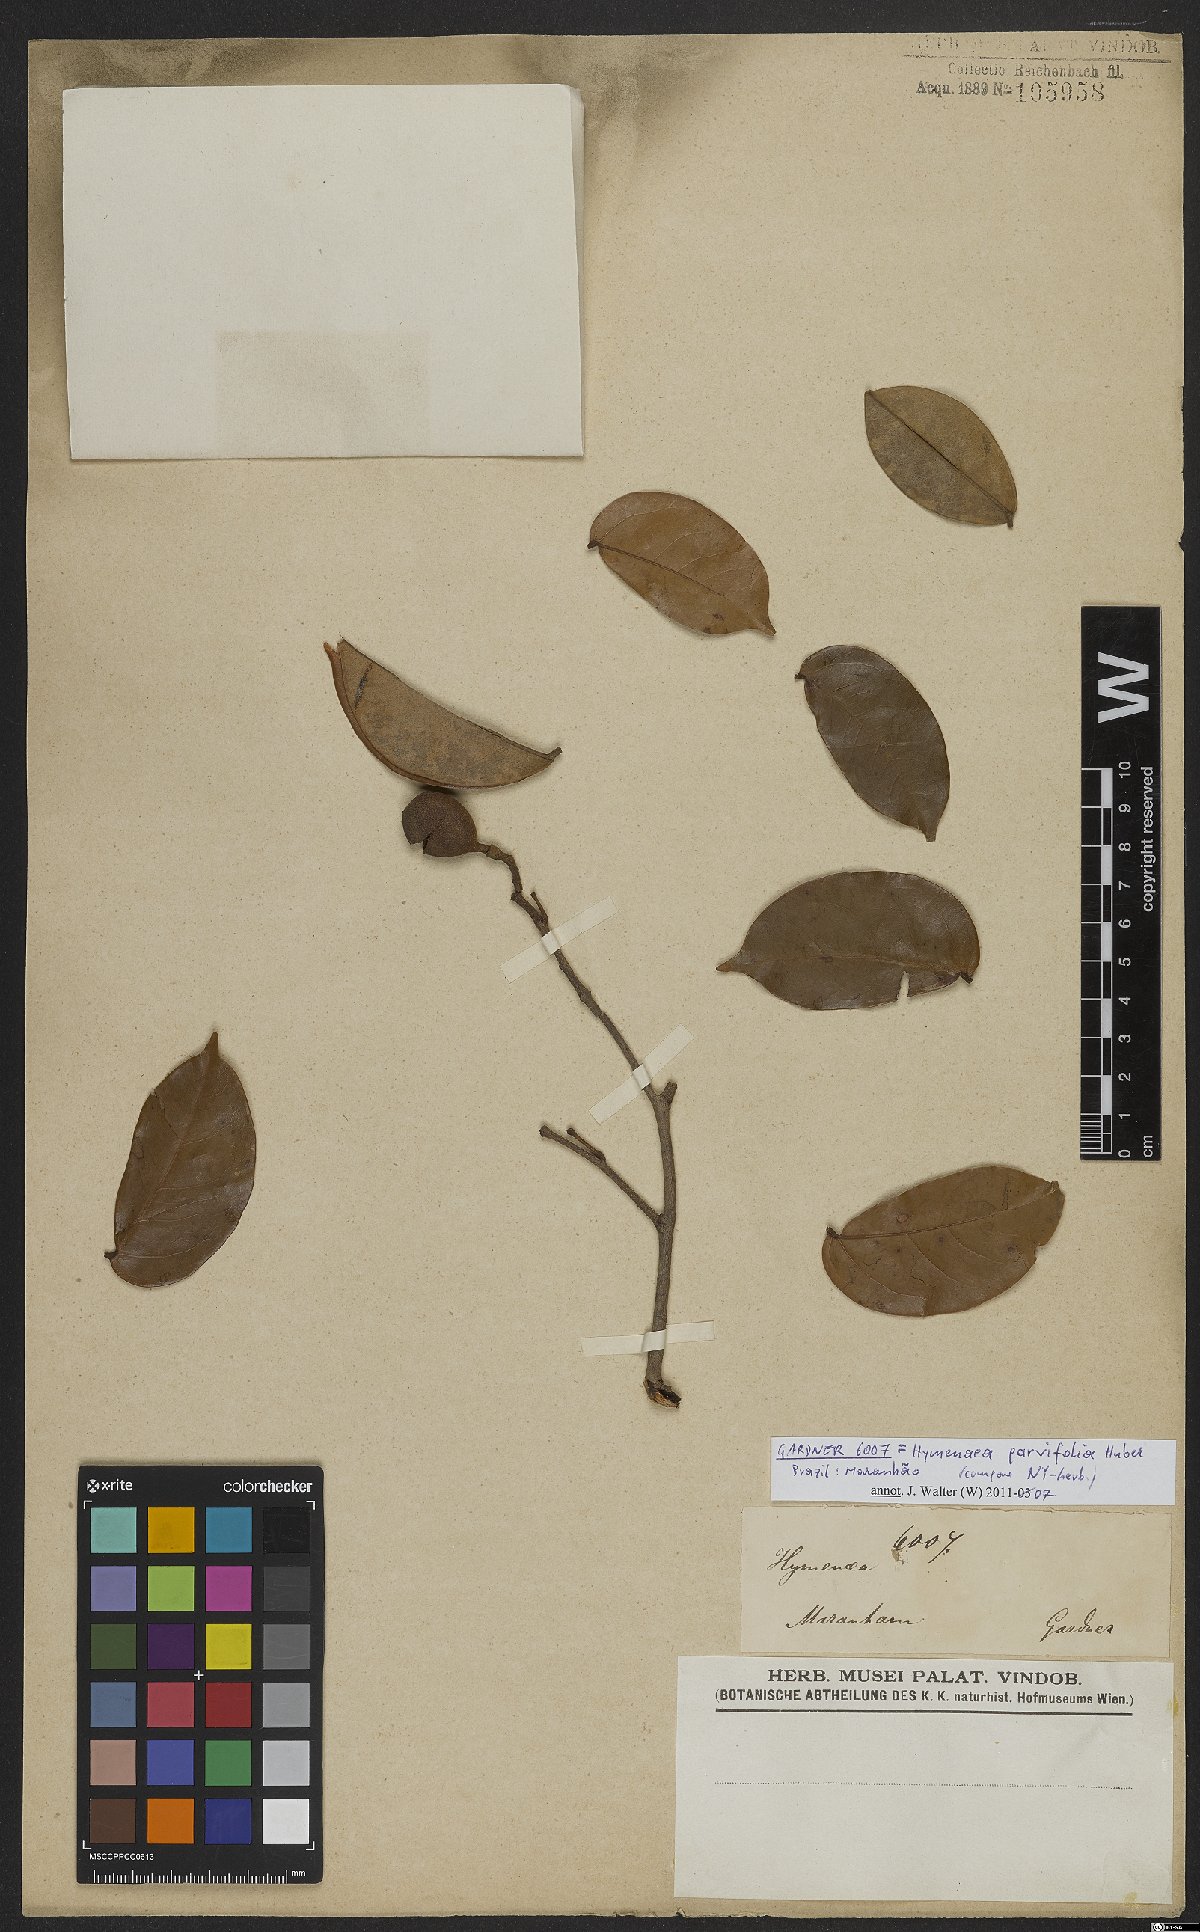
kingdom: Plantae
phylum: Tracheophyta
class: Magnoliopsida
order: Fabales
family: Fabaceae
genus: Hymenaea
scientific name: Hymenaea parvifolia
